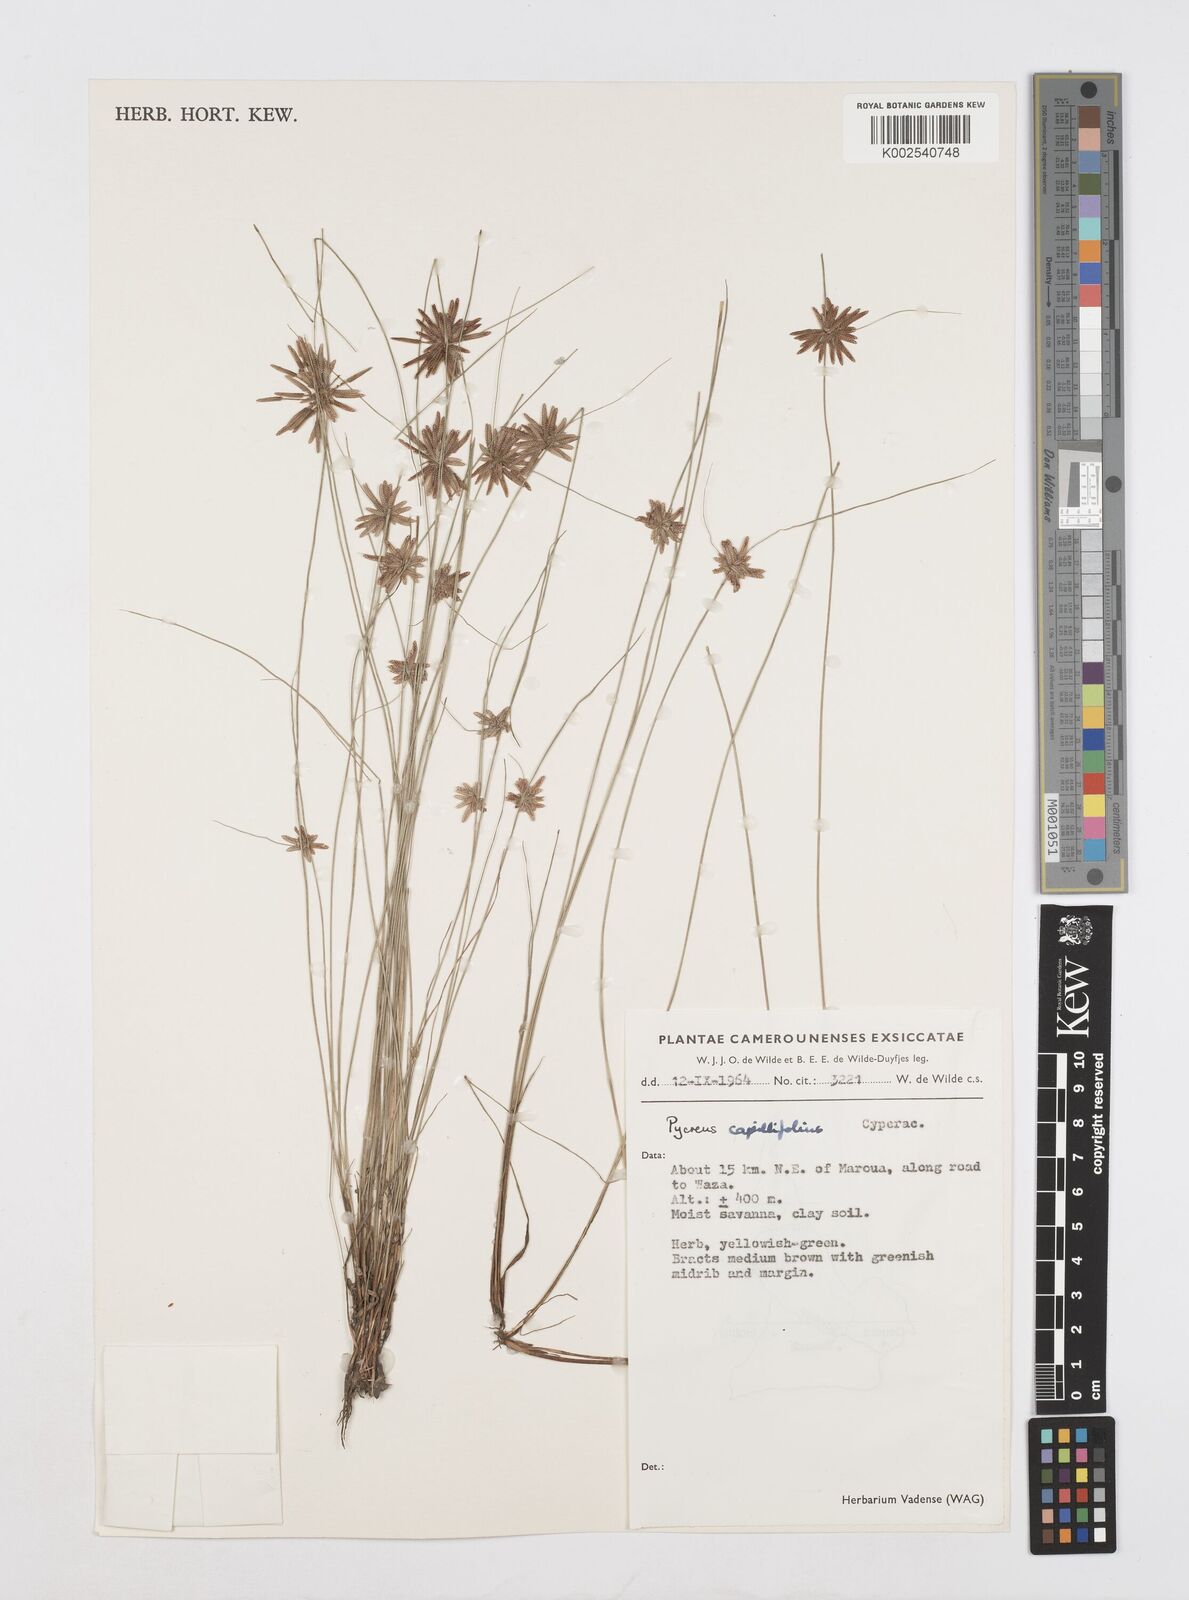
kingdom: Plantae
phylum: Tracheophyta
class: Liliopsida
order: Poales
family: Cyperaceae
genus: Cyperus
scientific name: Cyperus capillifolius
